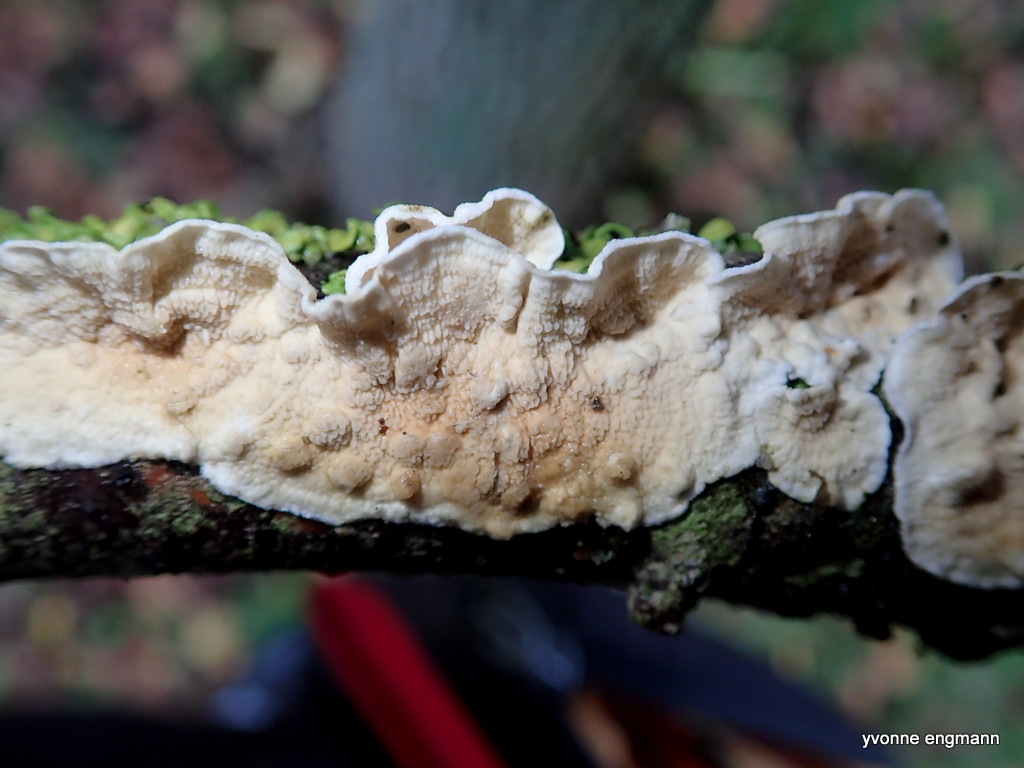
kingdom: Fungi
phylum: Basidiomycota
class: Agaricomycetes
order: Polyporales
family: Irpicaceae
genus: Byssomerulius
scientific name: Byssomerulius corium
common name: læder-åresvamp
